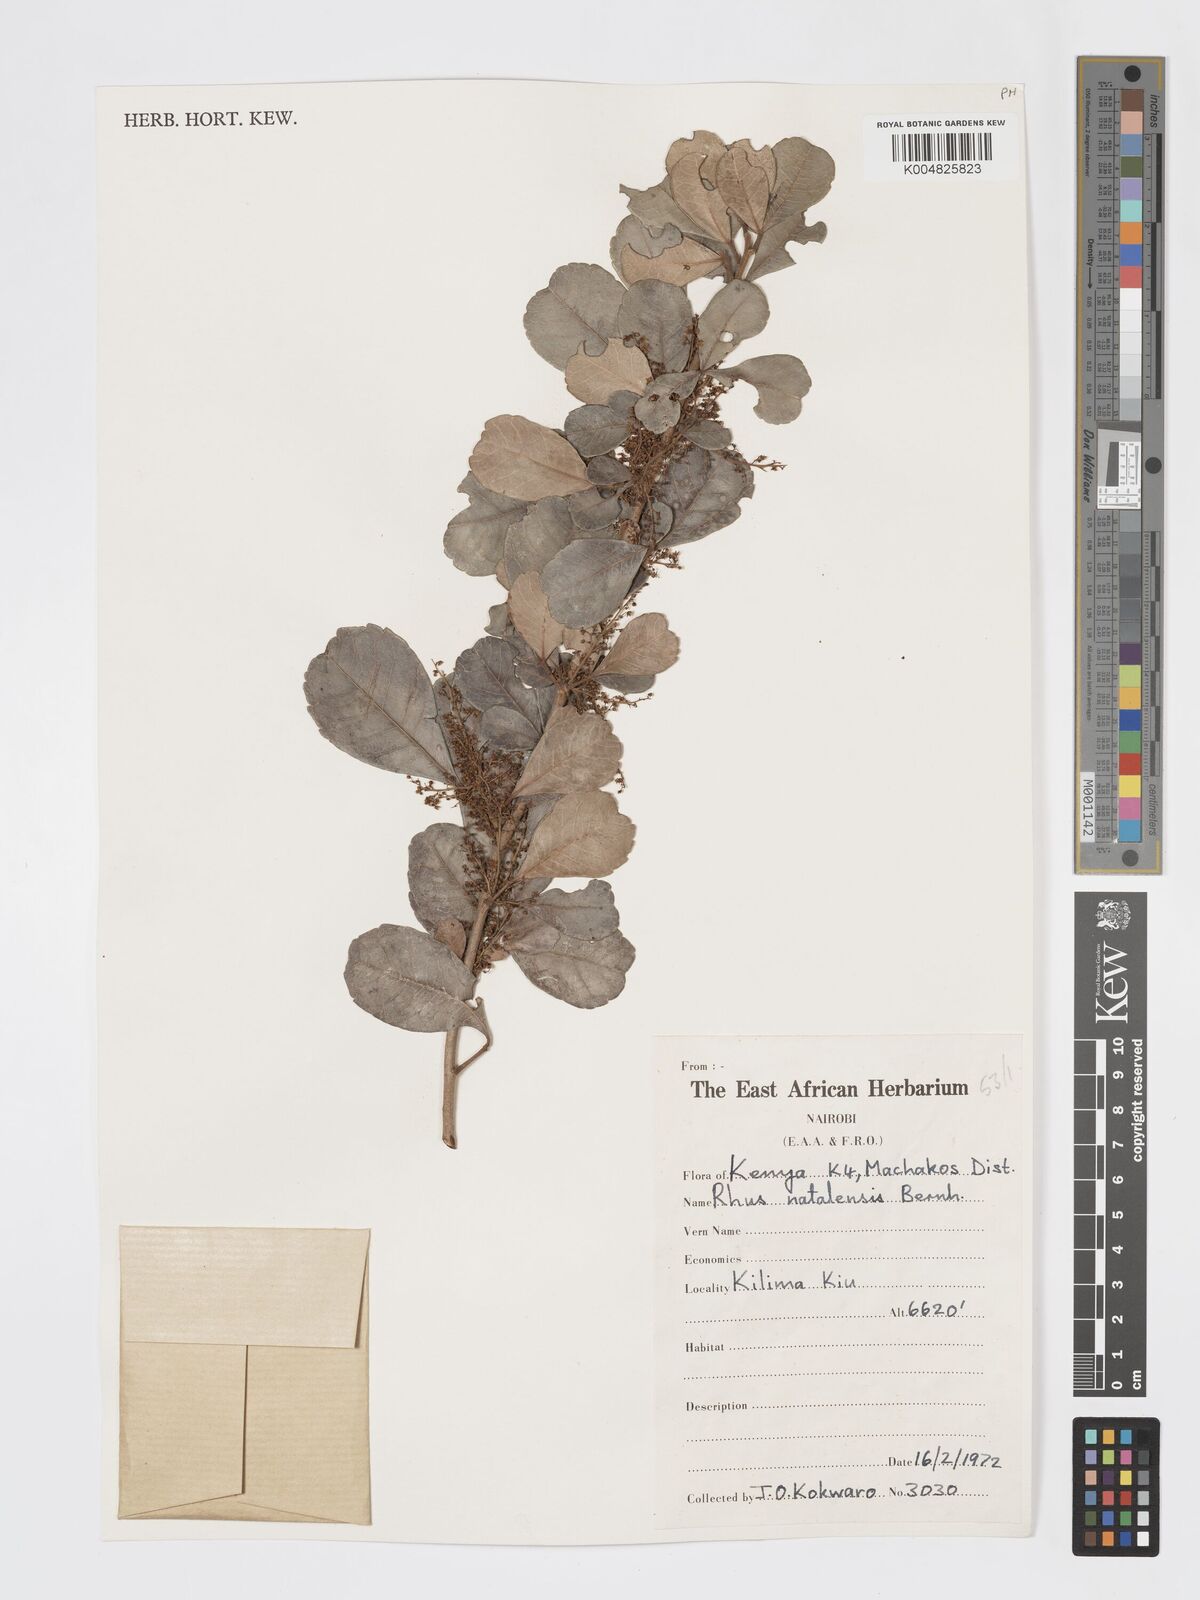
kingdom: Plantae
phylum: Tracheophyta
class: Magnoliopsida
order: Sapindales
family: Anacardiaceae
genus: Searsia
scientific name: Searsia natalensis
